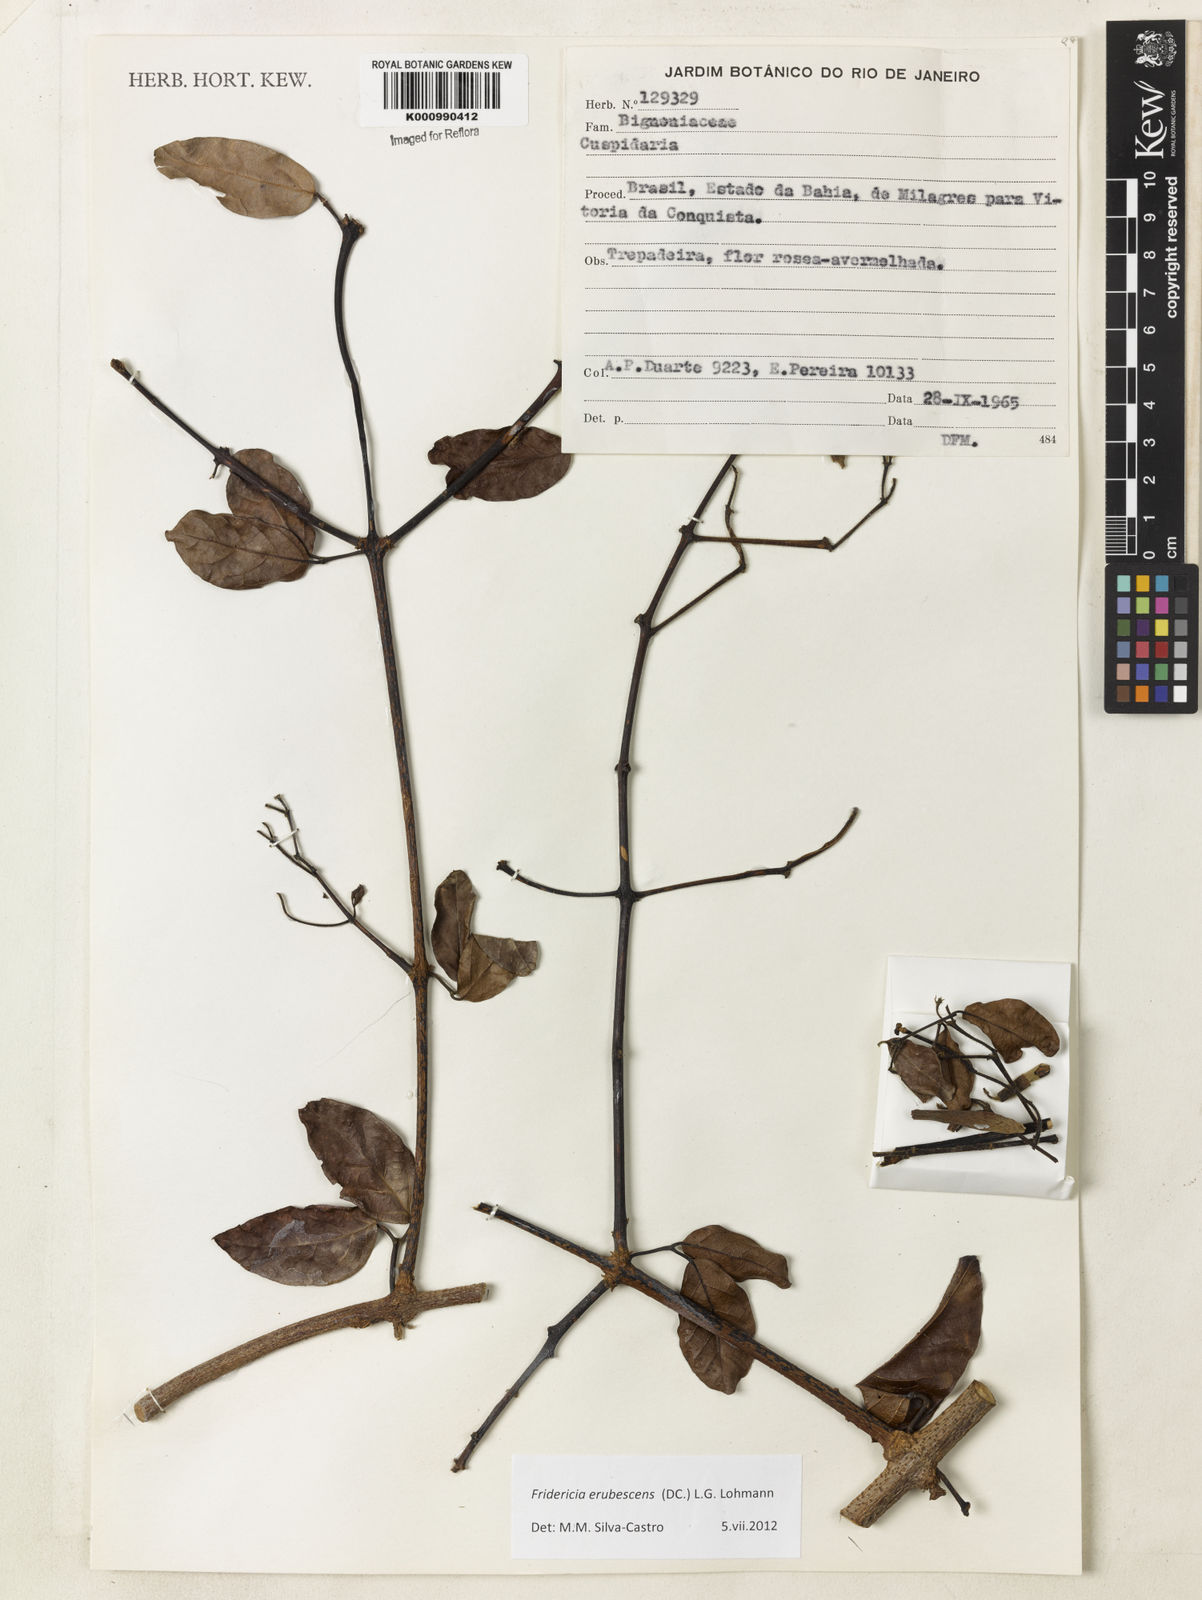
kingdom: Plantae
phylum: Tracheophyta
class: Magnoliopsida
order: Lamiales
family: Bignoniaceae
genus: Fridericia
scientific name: Fridericia erubescens
